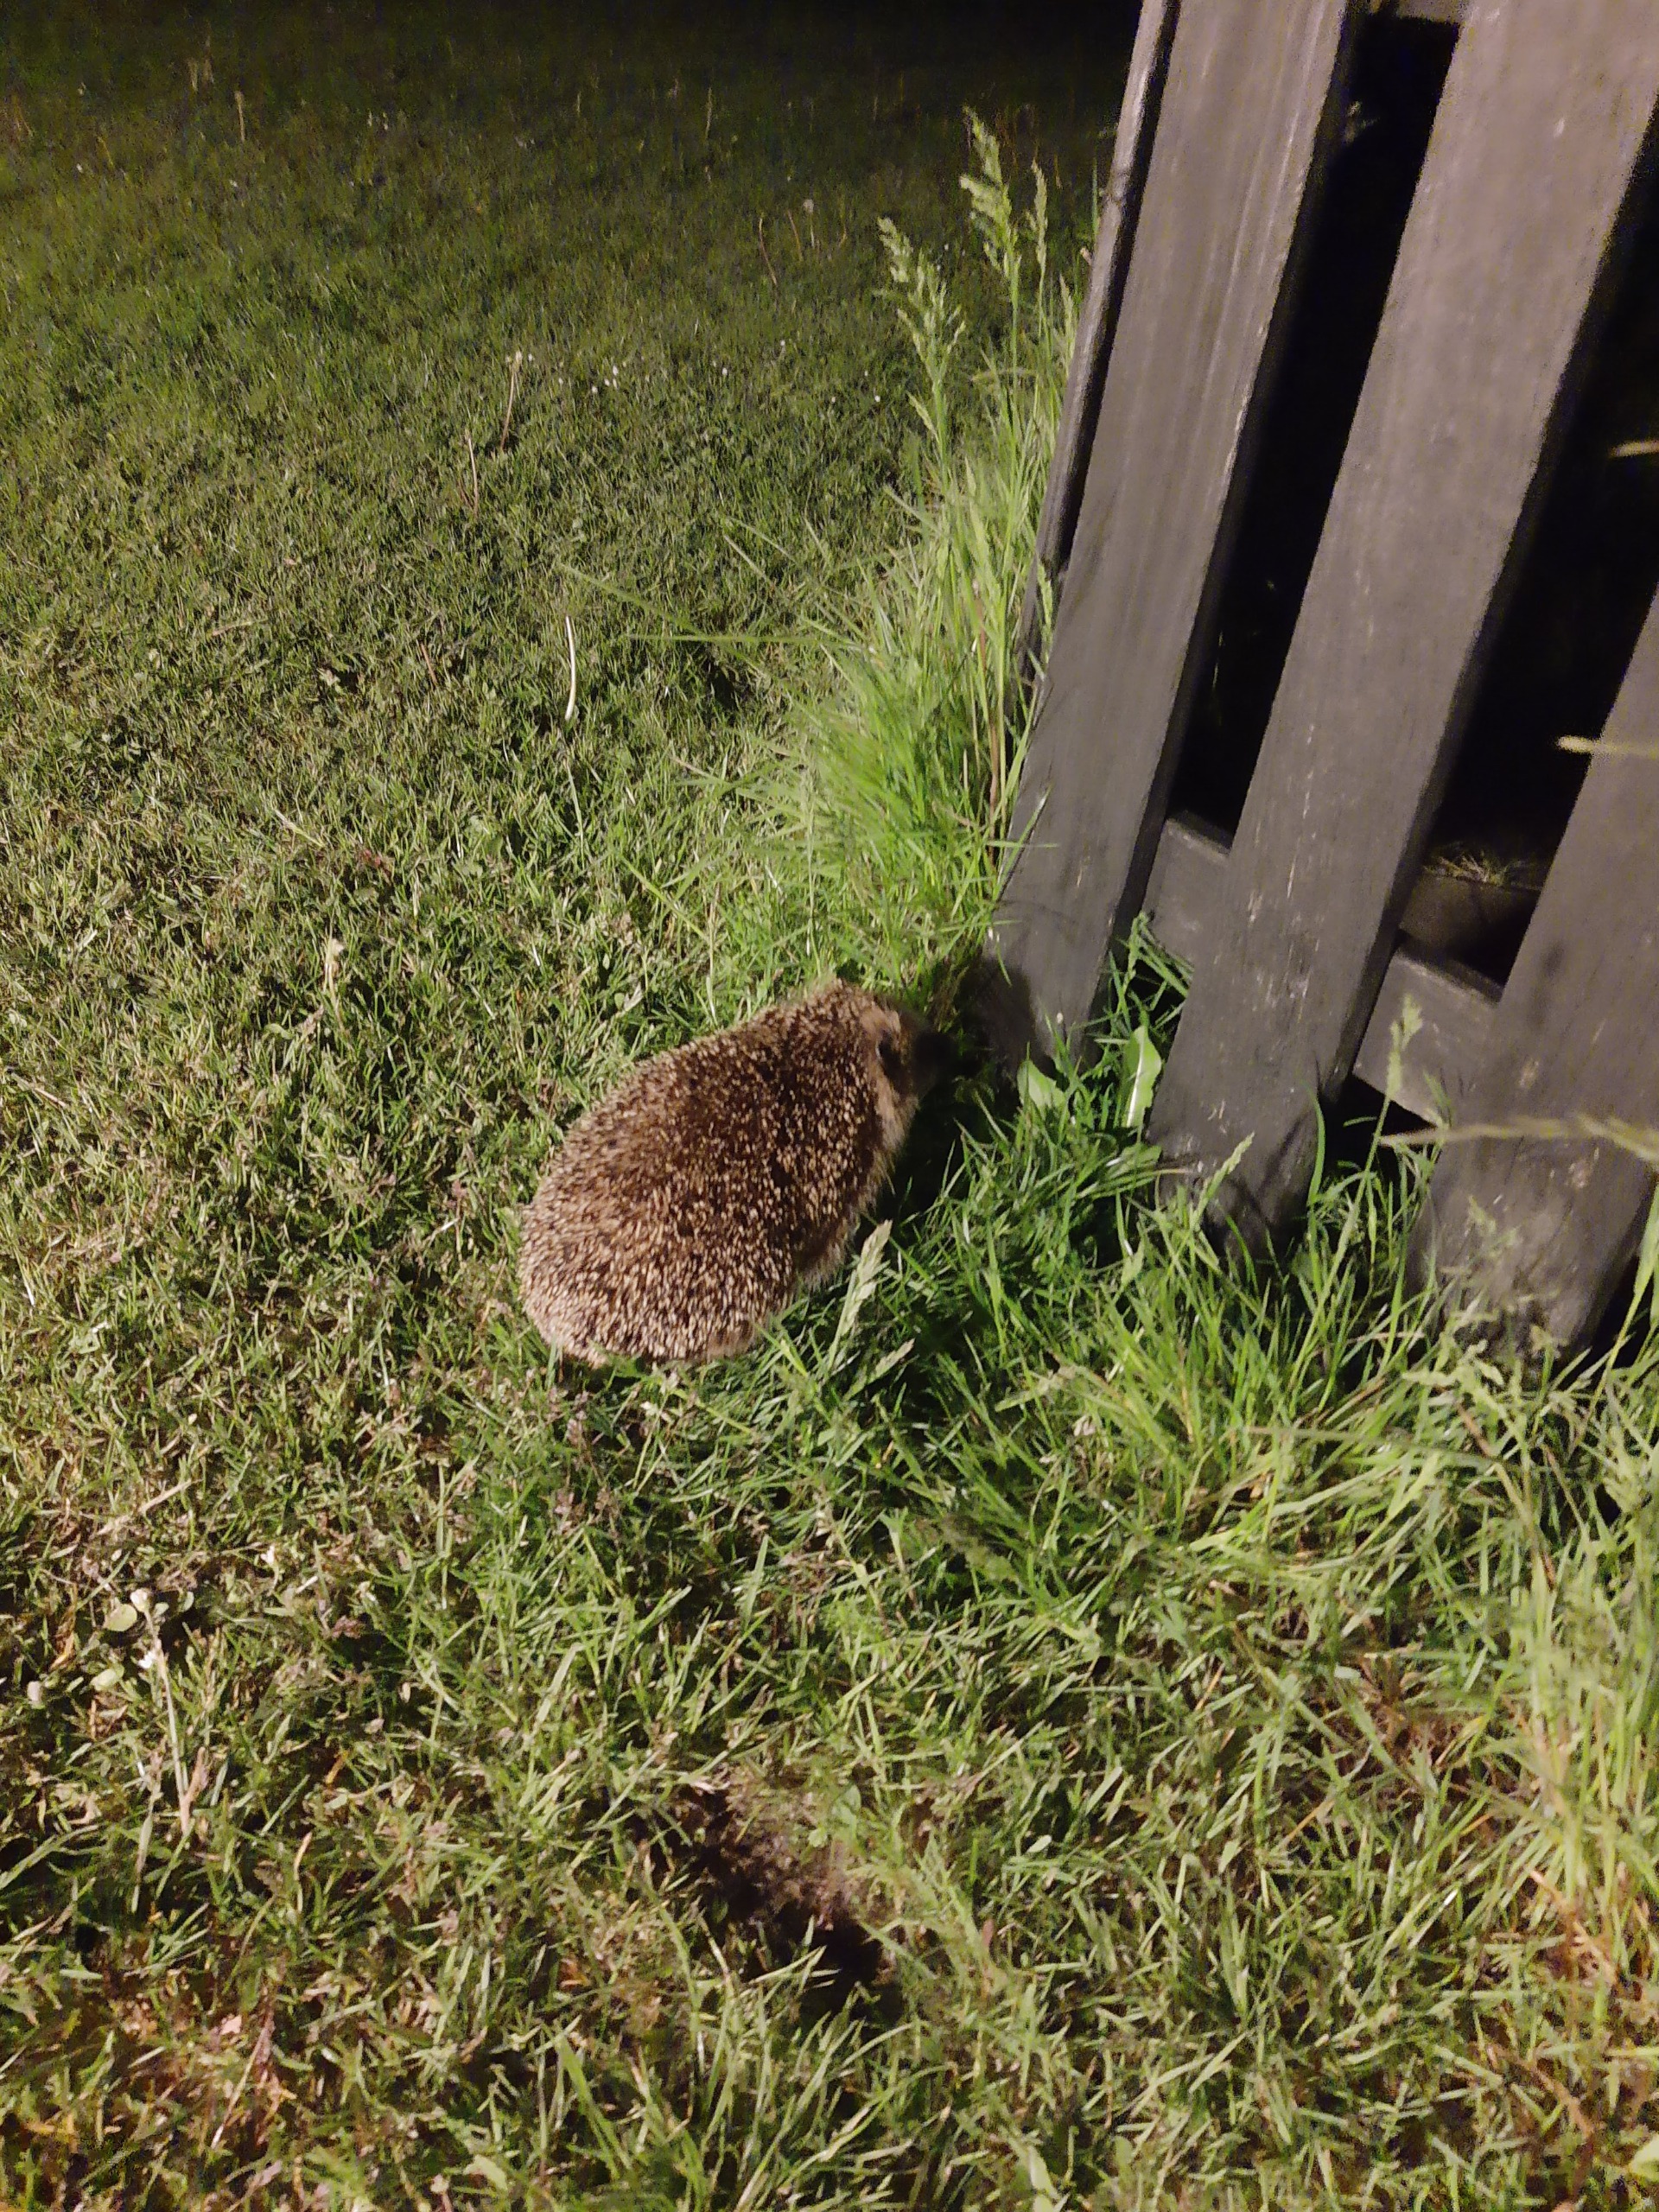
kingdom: Animalia
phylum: Chordata
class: Mammalia
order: Erinaceomorpha
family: Erinaceidae
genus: Erinaceus
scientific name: Erinaceus europaeus
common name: Pindsvin
